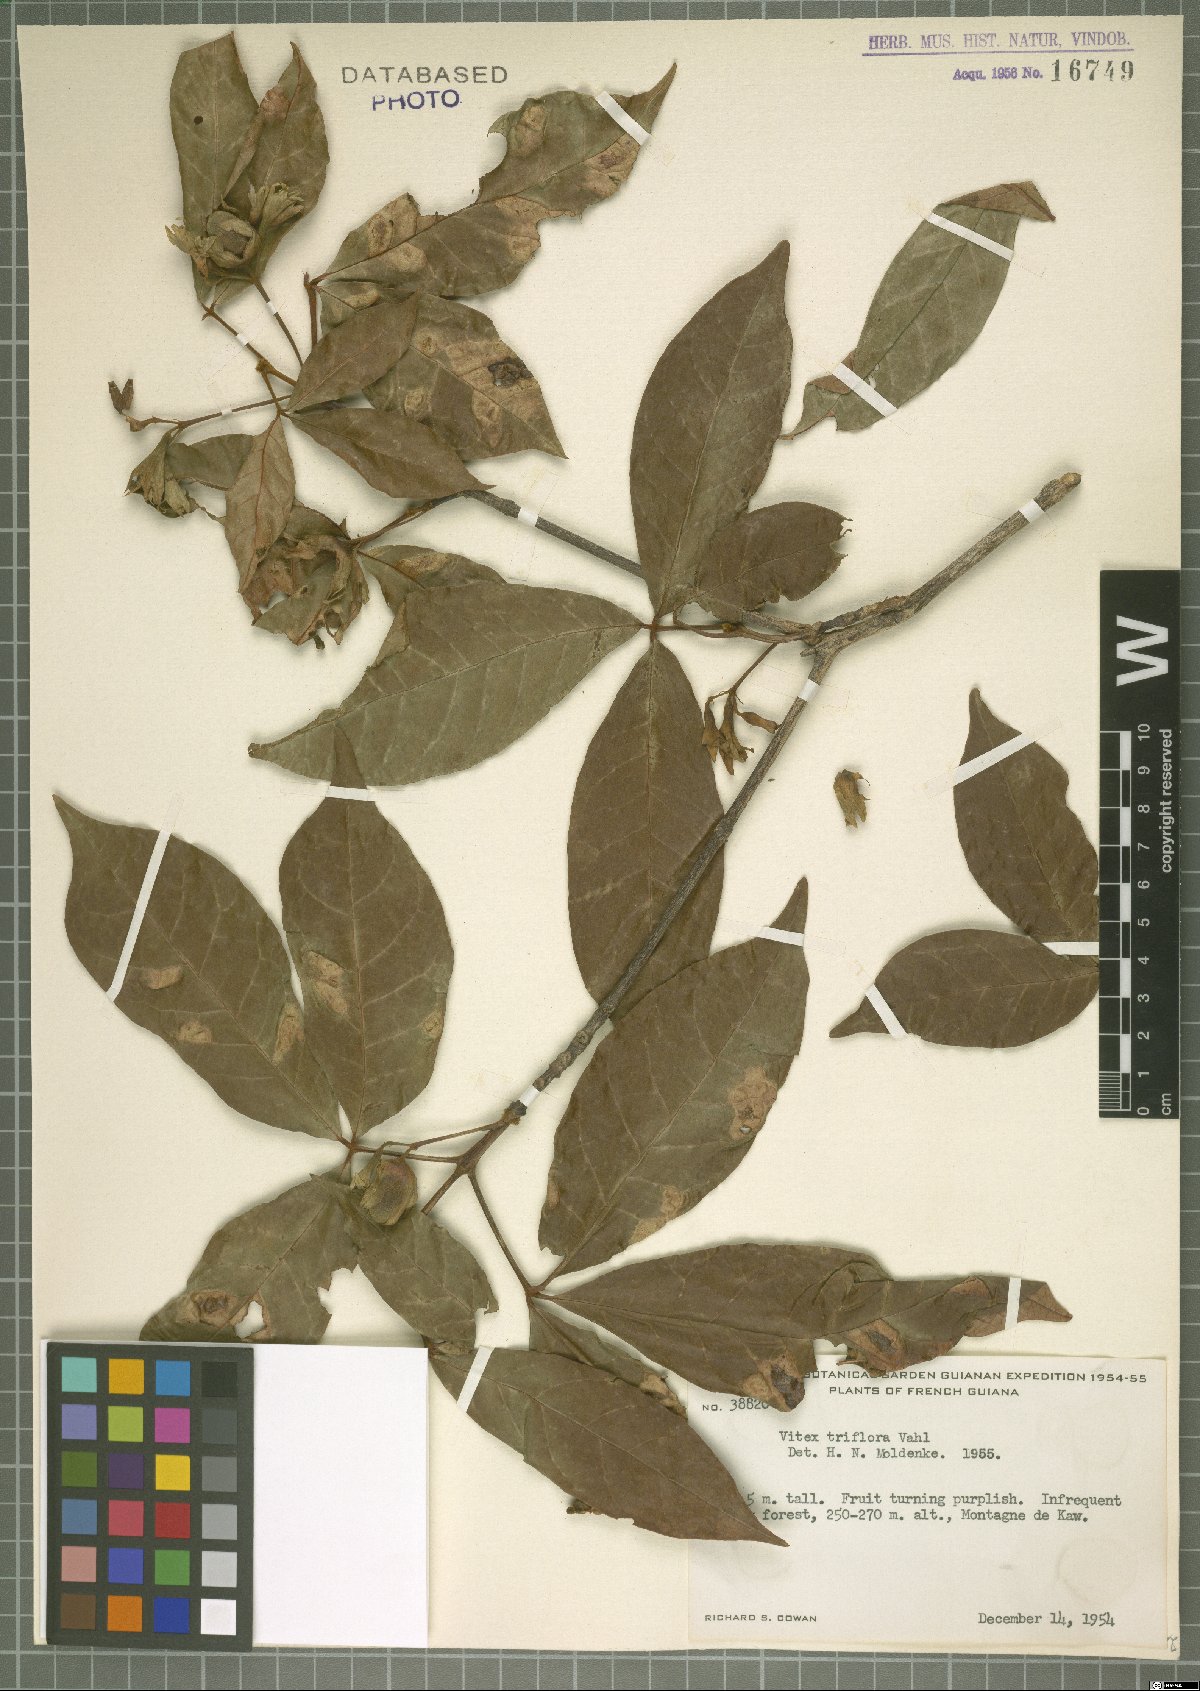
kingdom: Plantae
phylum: Tracheophyta
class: Magnoliopsida
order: Lamiales
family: Lamiaceae
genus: Vitex
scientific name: Vitex triflora
